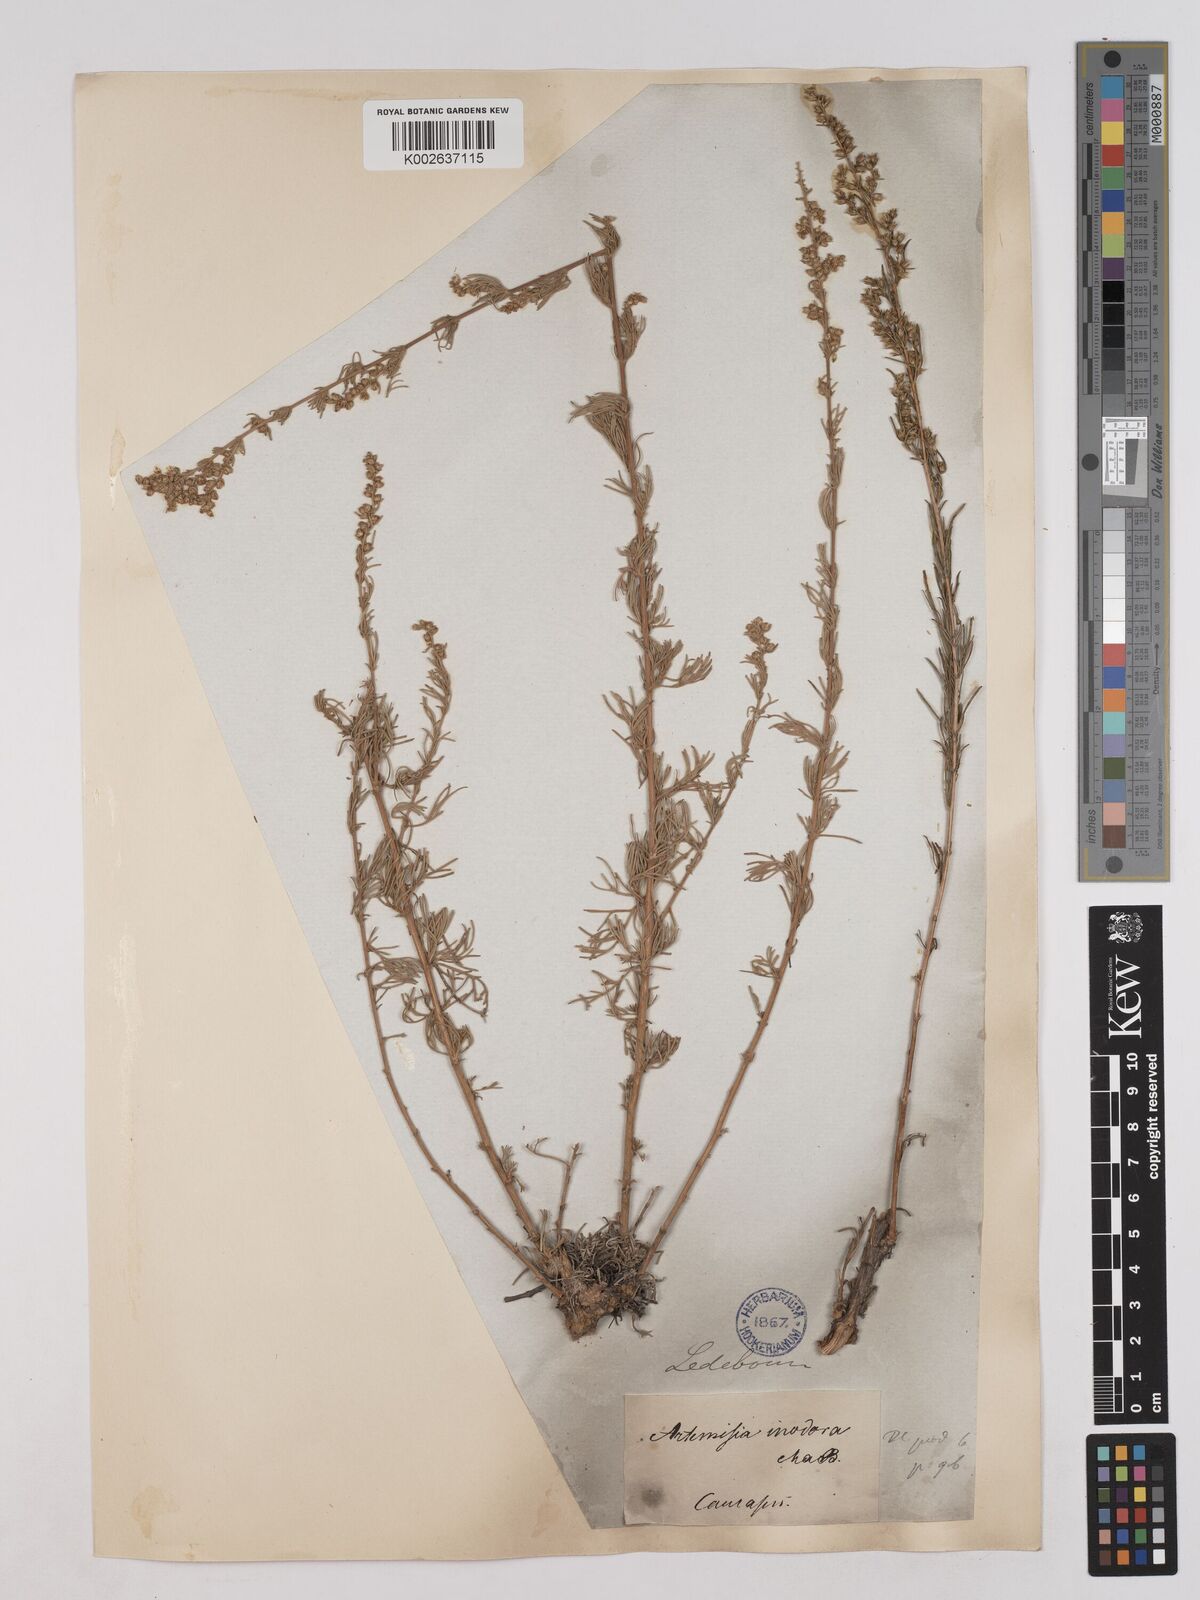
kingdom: Plantae
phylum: Tracheophyta
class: Magnoliopsida
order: Asterales
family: Asteraceae
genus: Artemisia
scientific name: Artemisia campestris
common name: Field wormwood
